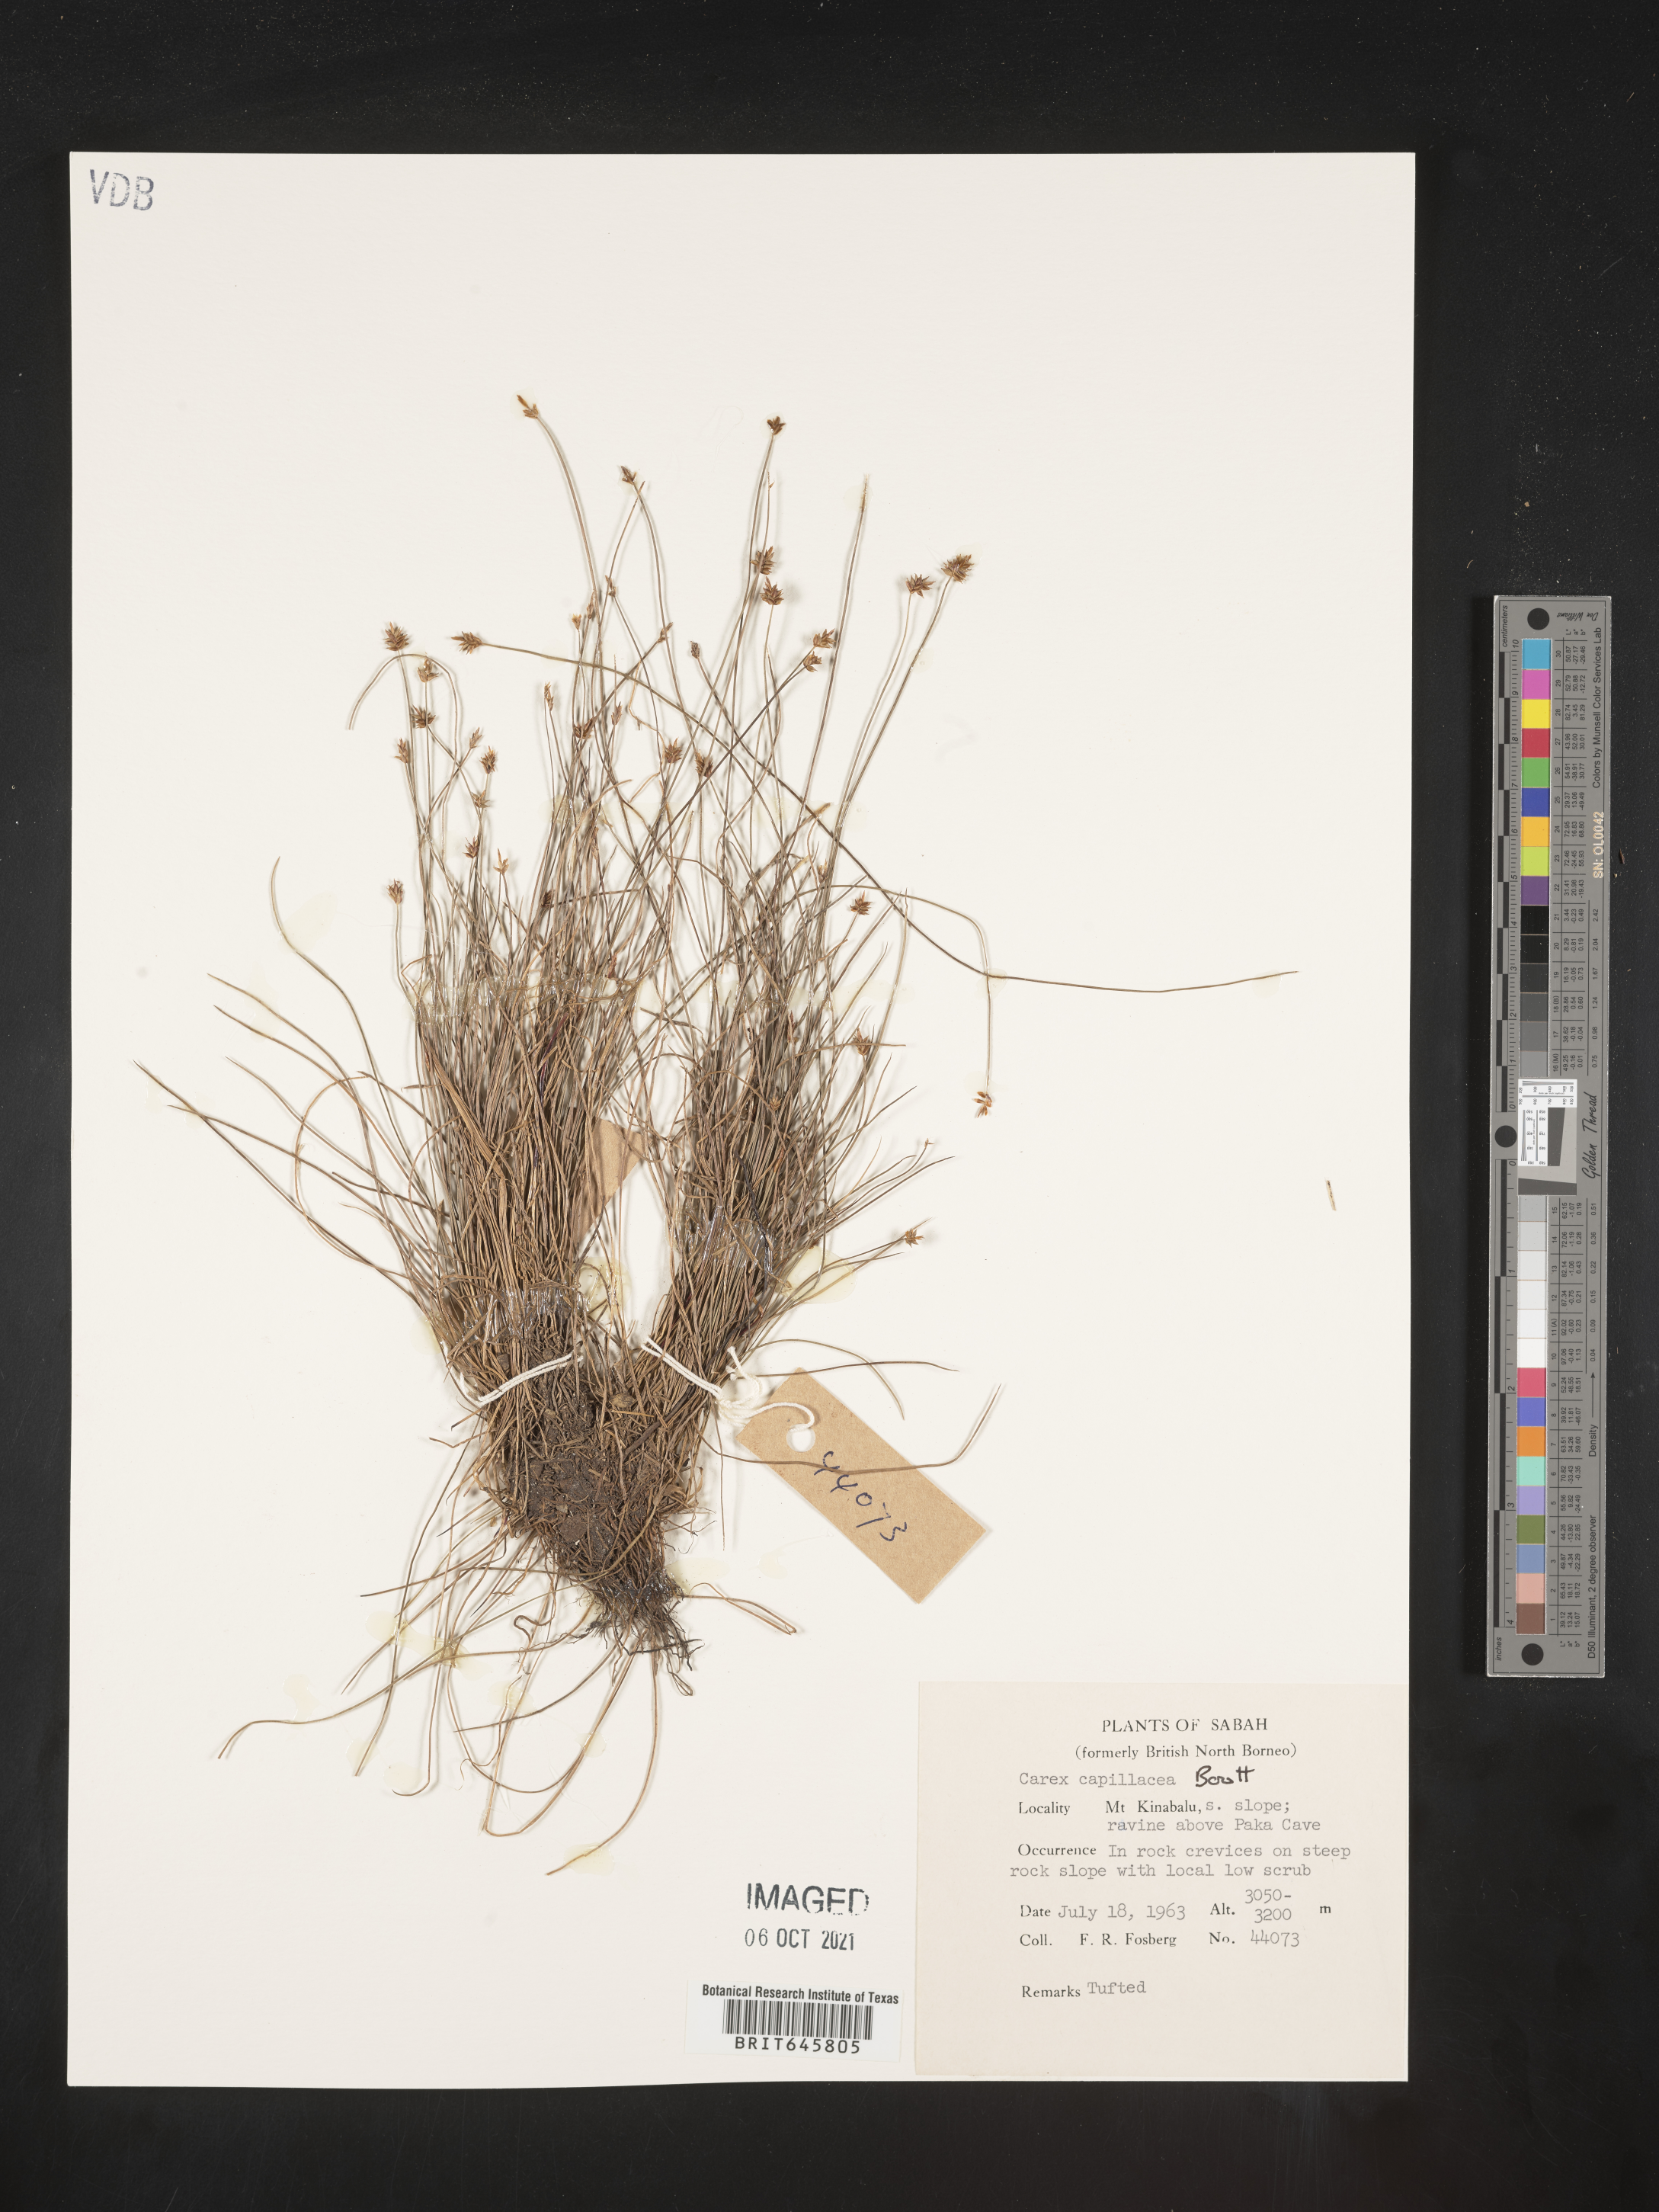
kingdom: Plantae
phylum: Tracheophyta
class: Liliopsida
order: Poales
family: Cyperaceae
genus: Carex
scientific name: Carex capillacea
